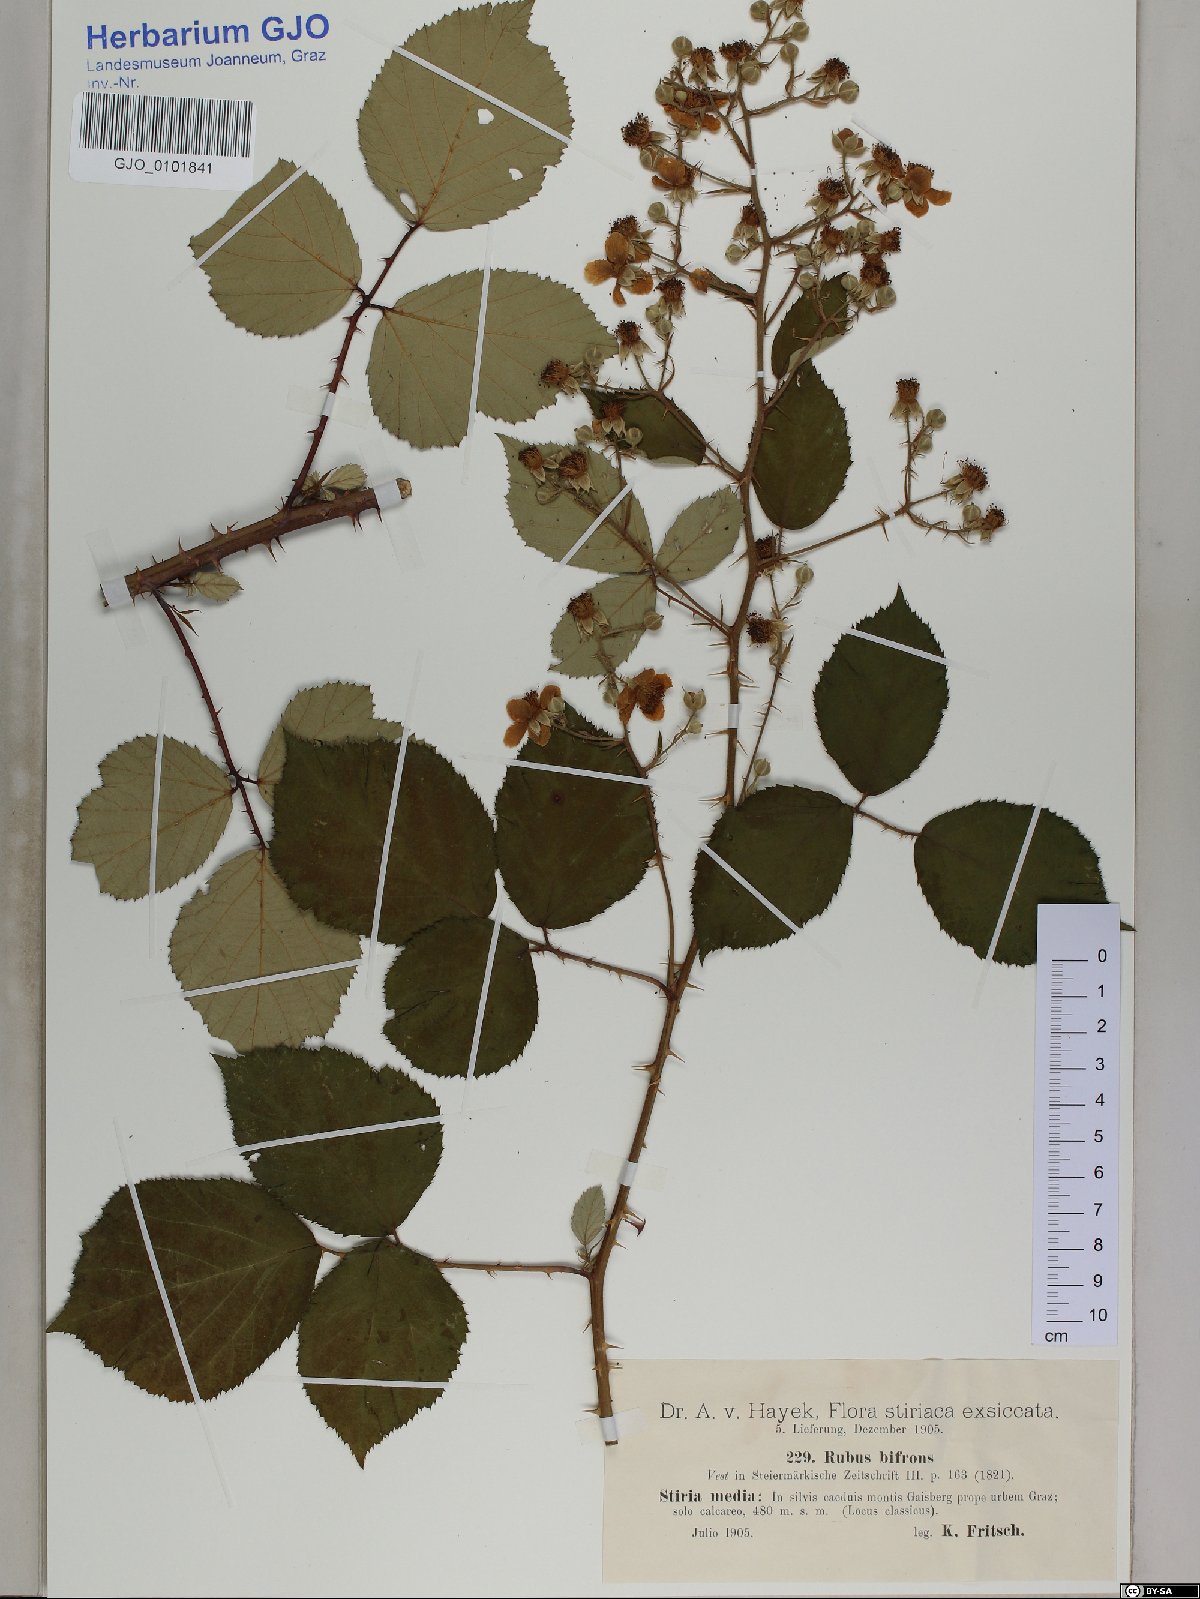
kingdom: Plantae
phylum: Tracheophyta
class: Magnoliopsida
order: Rosales
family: Rosaceae
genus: Rubus
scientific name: Rubus bifrons
